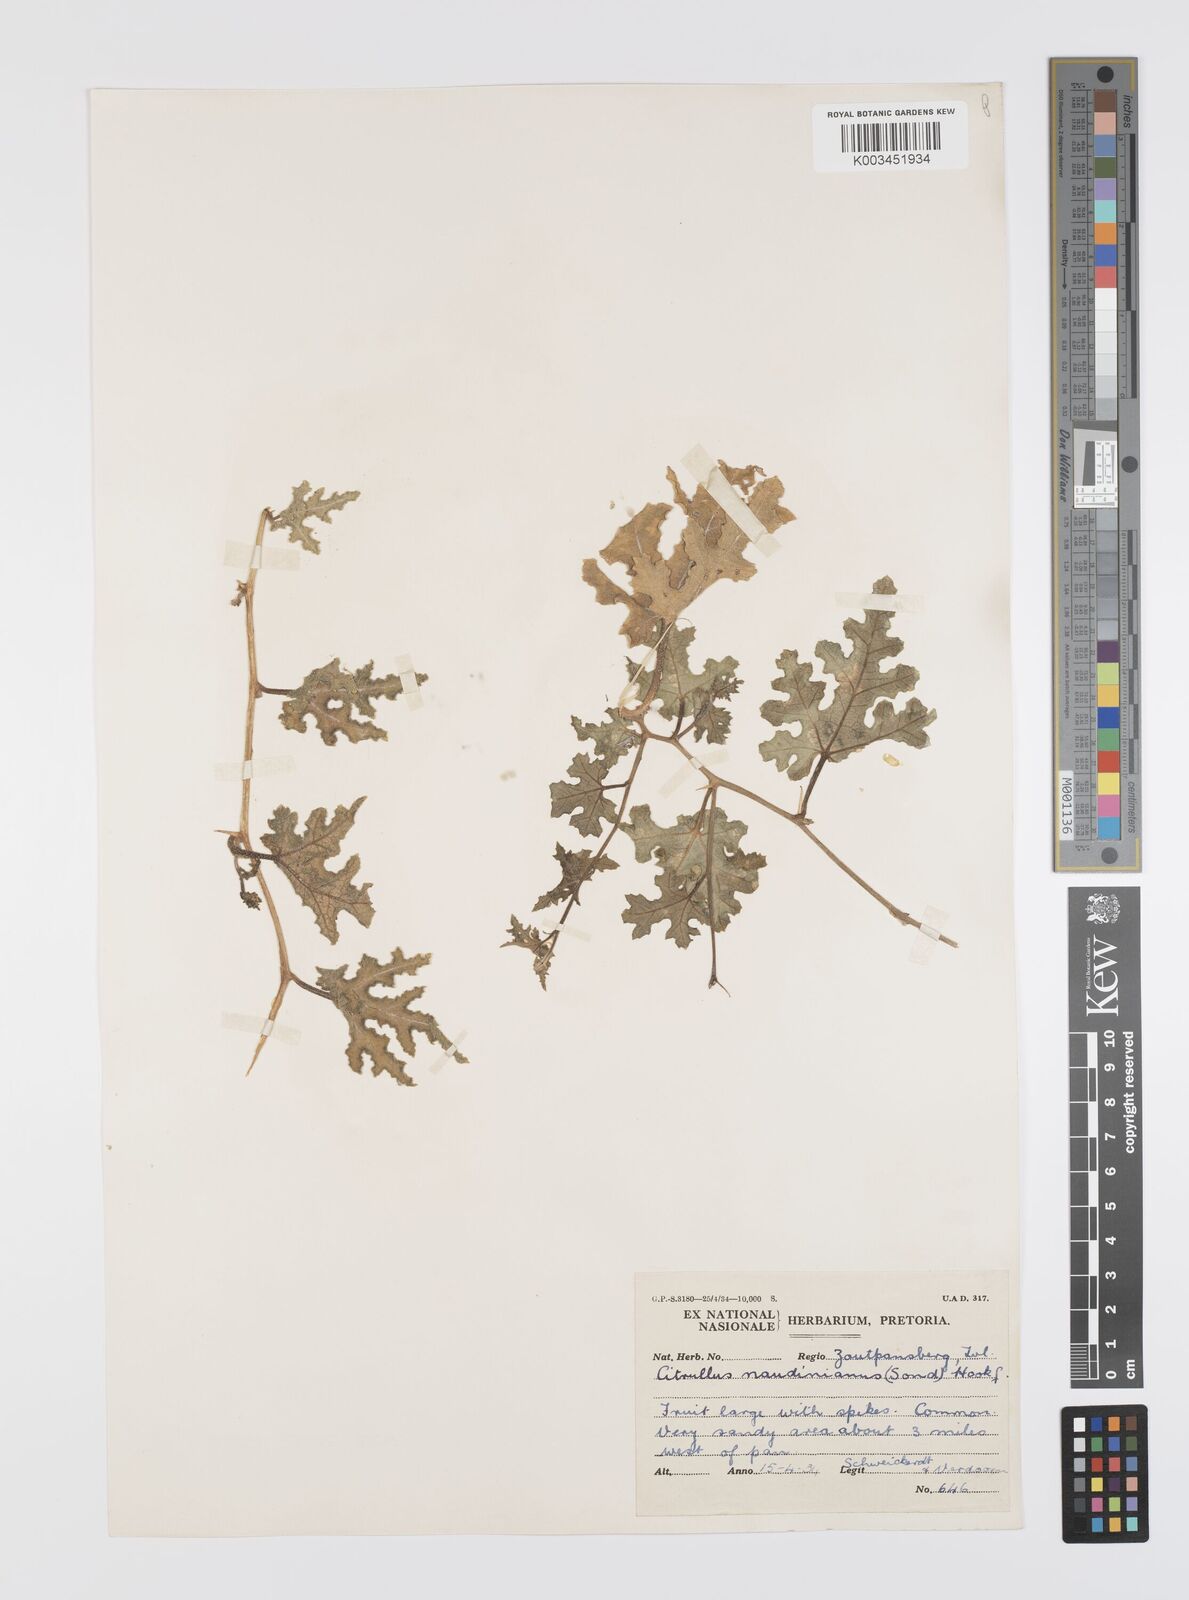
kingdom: Plantae
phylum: Tracheophyta
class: Magnoliopsida
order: Cucurbitales
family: Cucurbitaceae
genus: Citrullus
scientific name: Citrullus naudinianus
